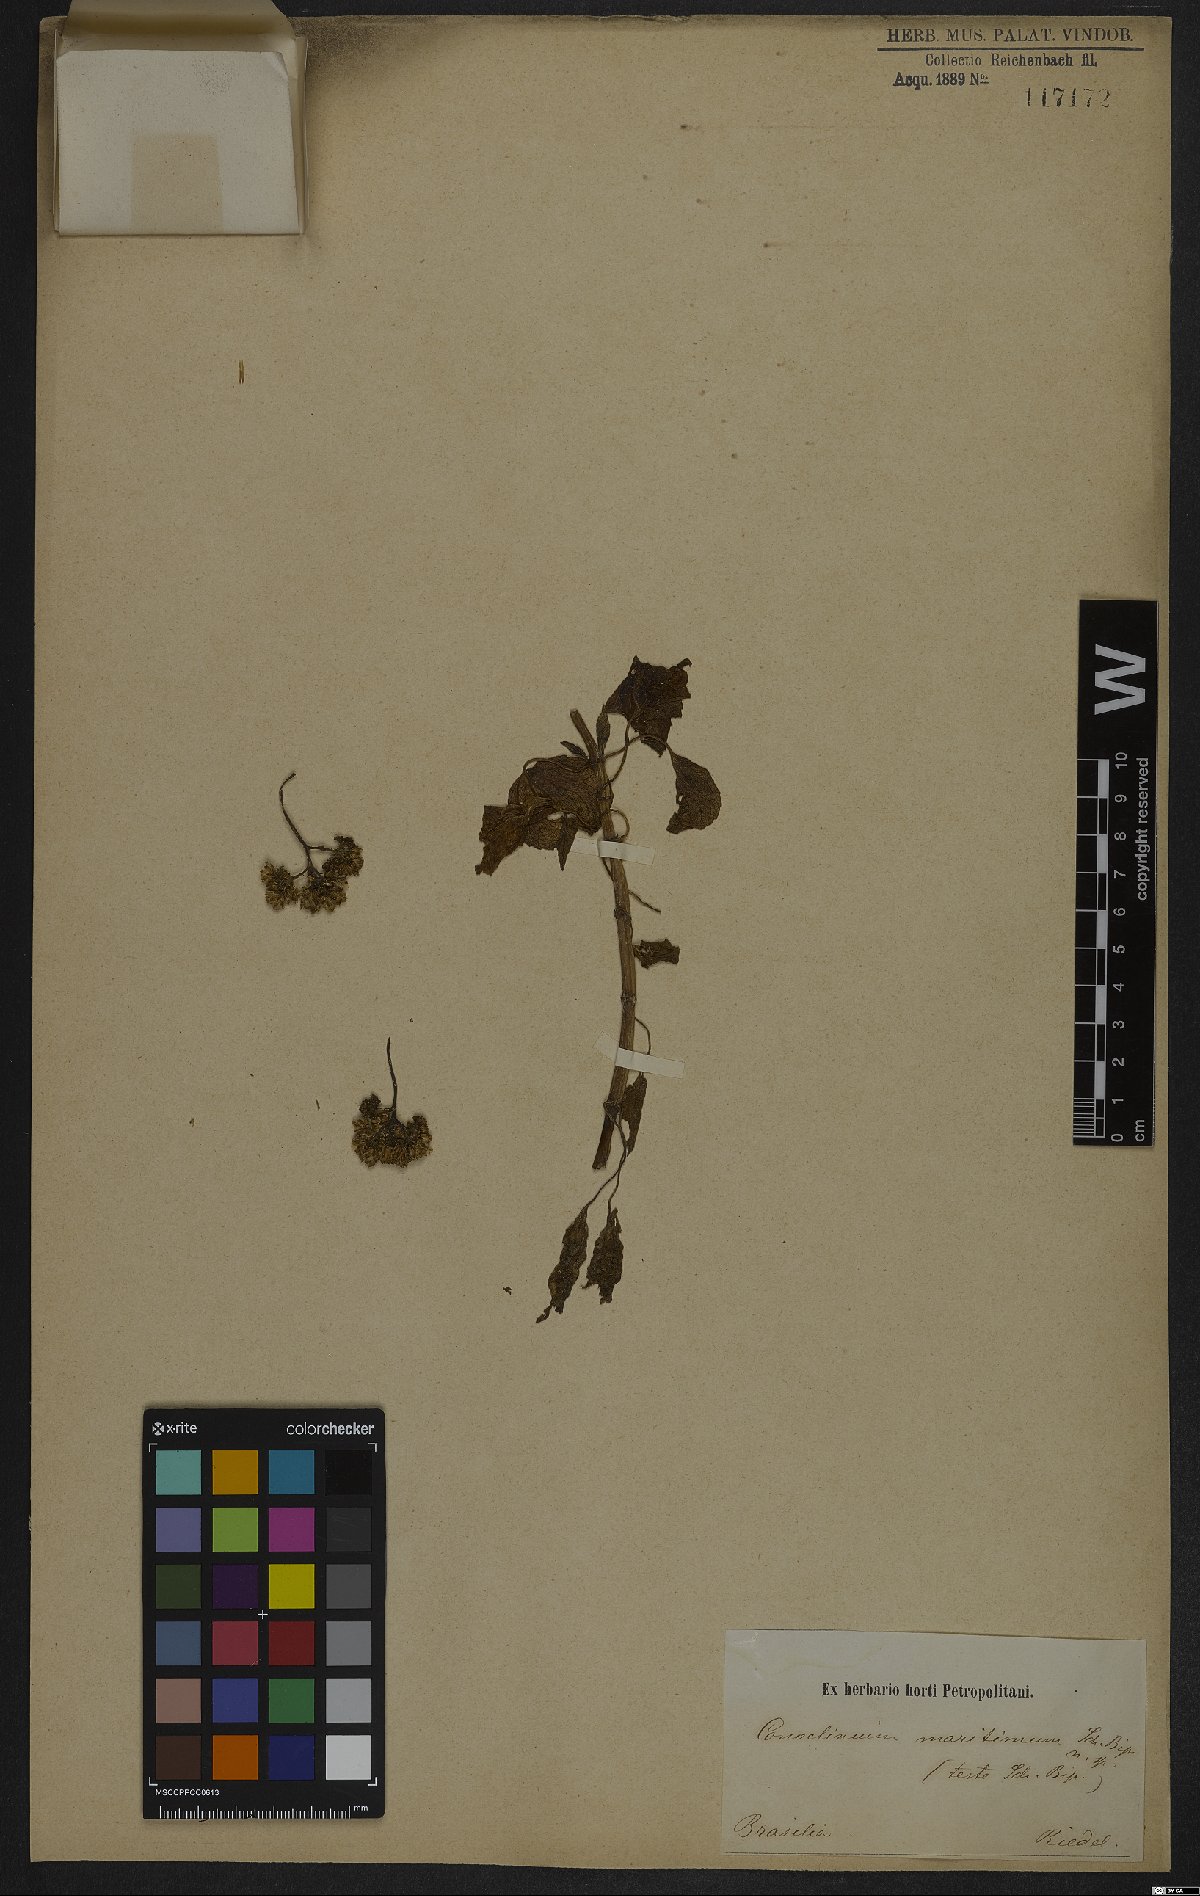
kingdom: Plantae
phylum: Tracheophyta
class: Magnoliopsida
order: Asterales
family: Asteraceae
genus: Barrosoa
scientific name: Barrosoa apiculata
